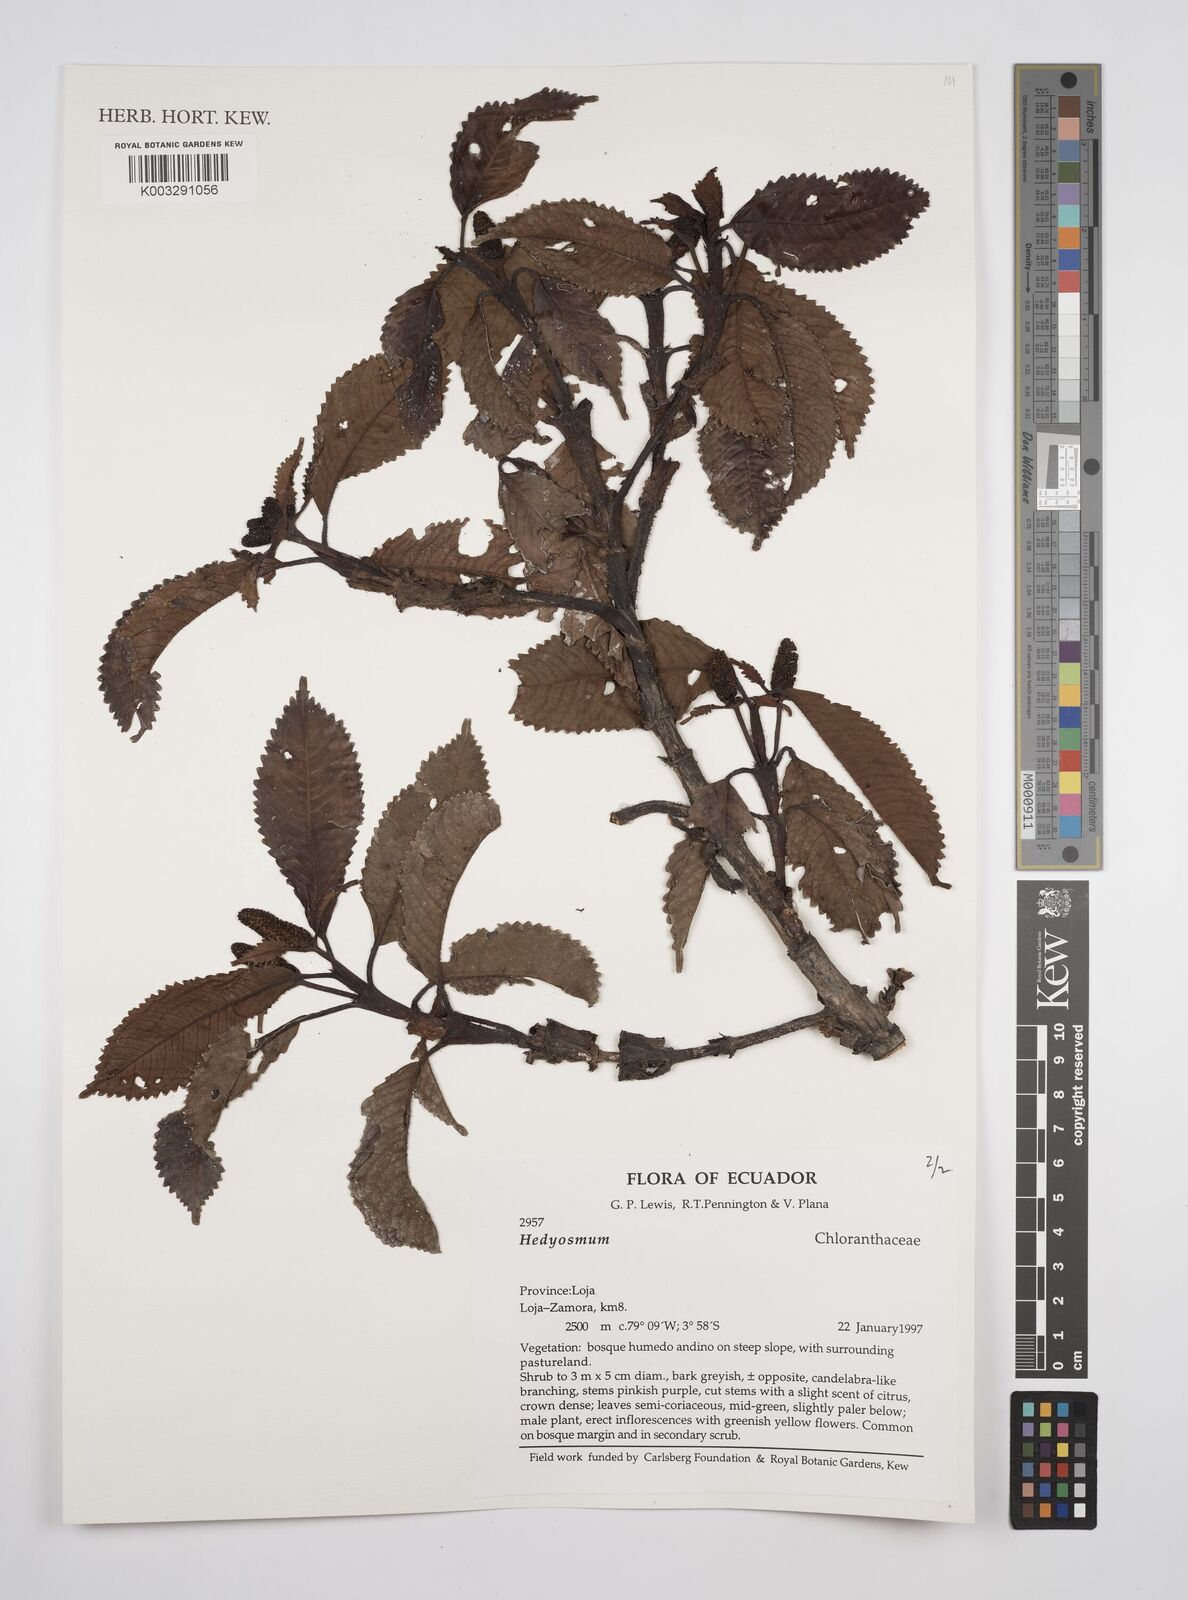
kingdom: Plantae
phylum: Tracheophyta
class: Magnoliopsida
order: Chloranthales
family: Chloranthaceae
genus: Hedyosmum
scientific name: Hedyosmum
